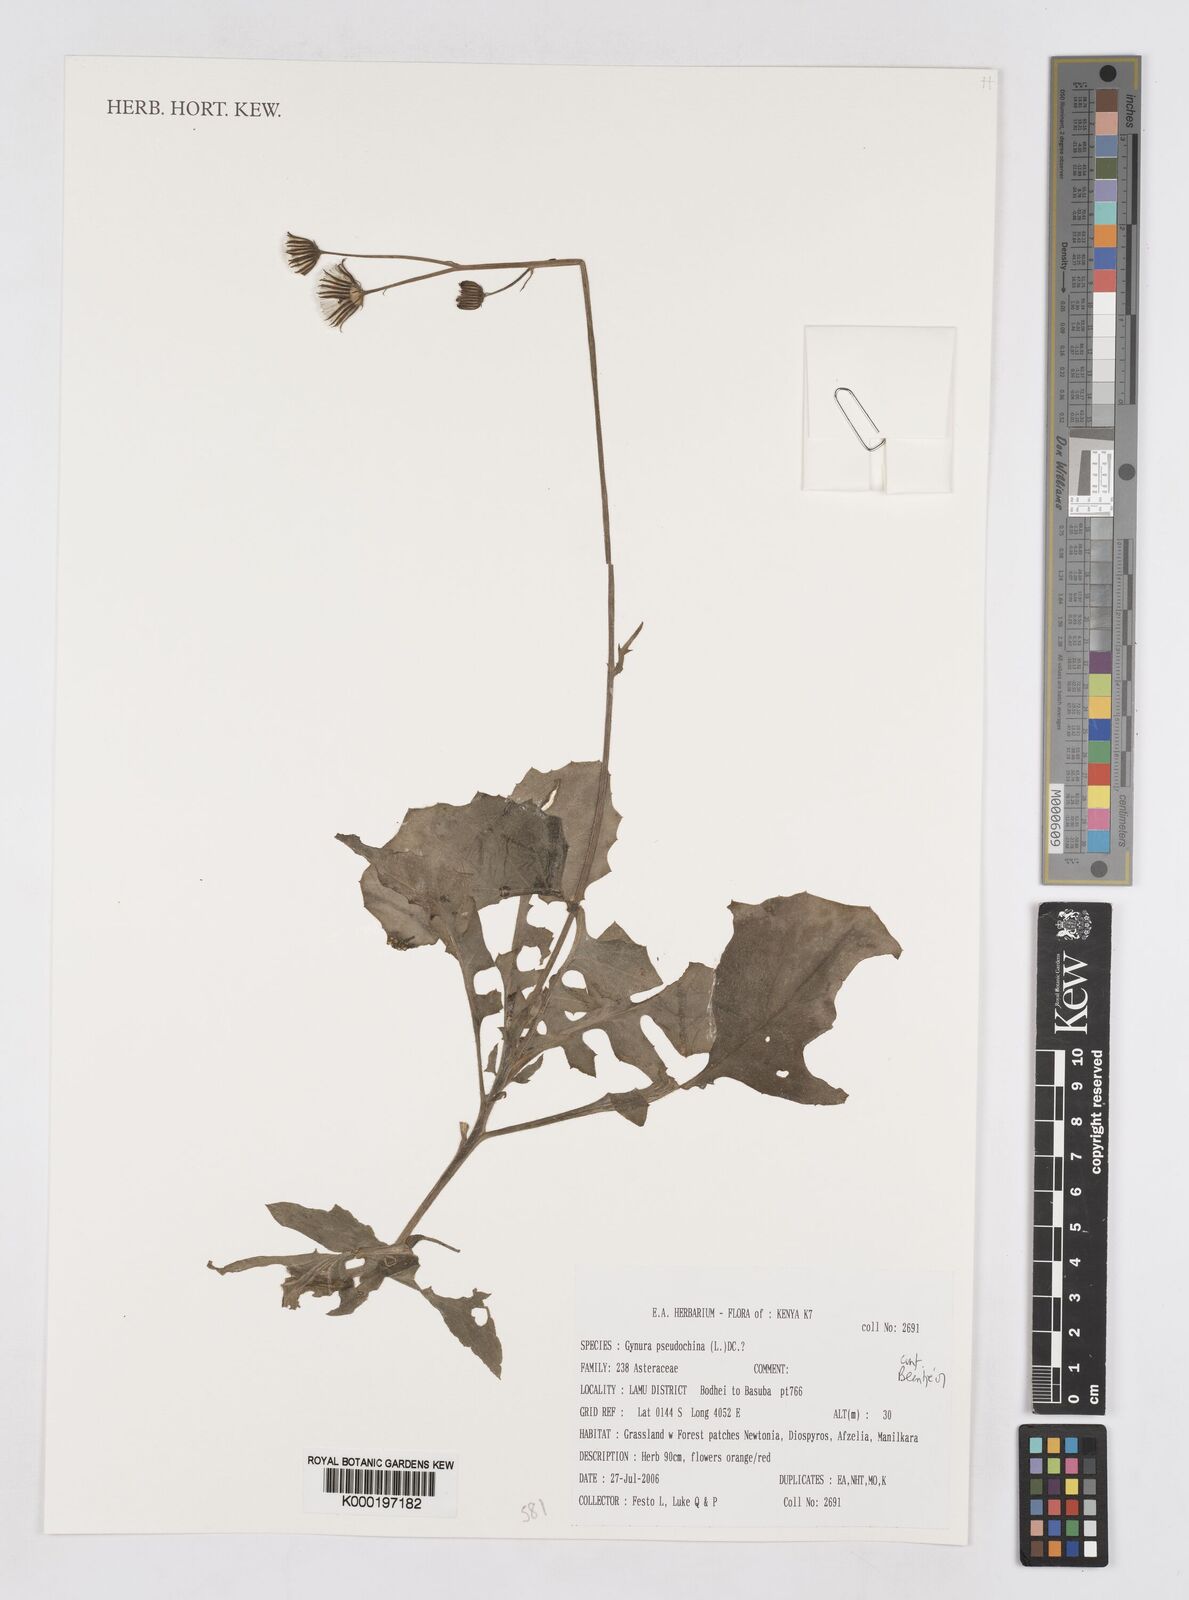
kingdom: Plantae
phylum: Tracheophyta
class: Magnoliopsida
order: Asterales
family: Asteraceae
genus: Gynura
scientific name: Gynura pseudochina
